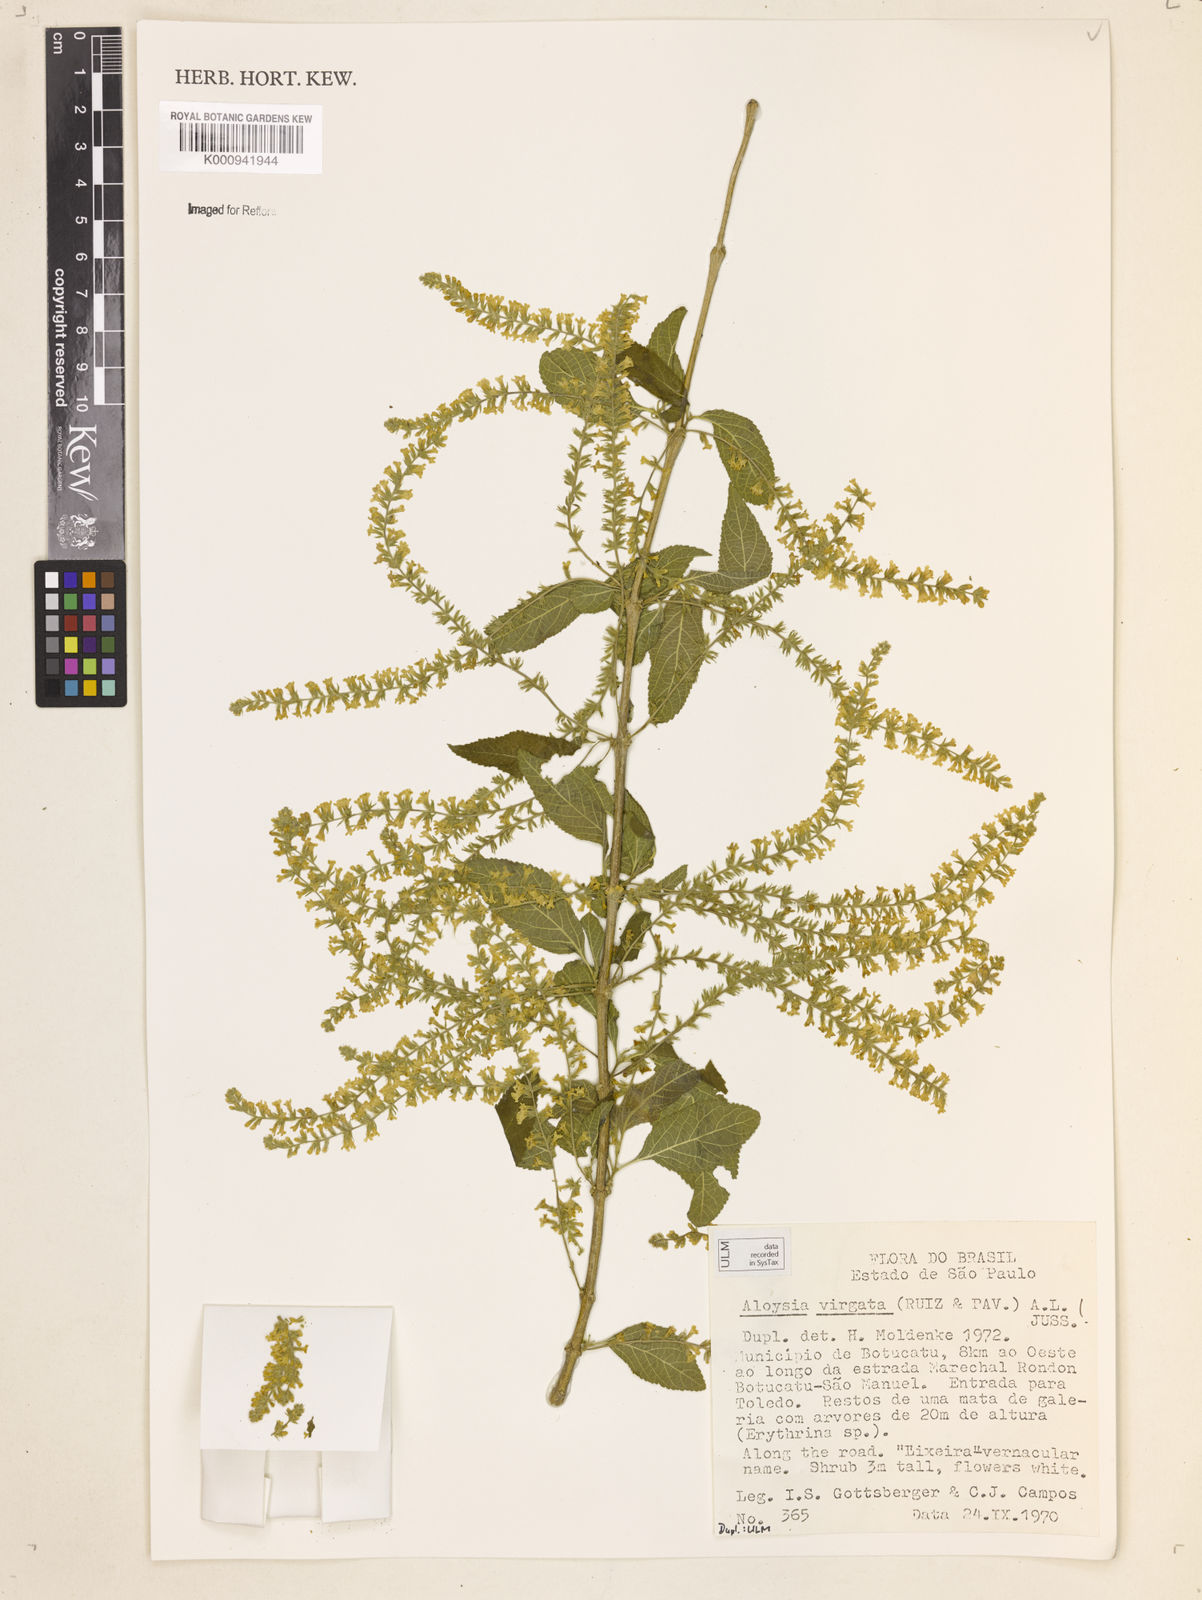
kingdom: Plantae
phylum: Tracheophyta
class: Magnoliopsida
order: Lamiales
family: Verbenaceae
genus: Aloysia
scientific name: Aloysia
